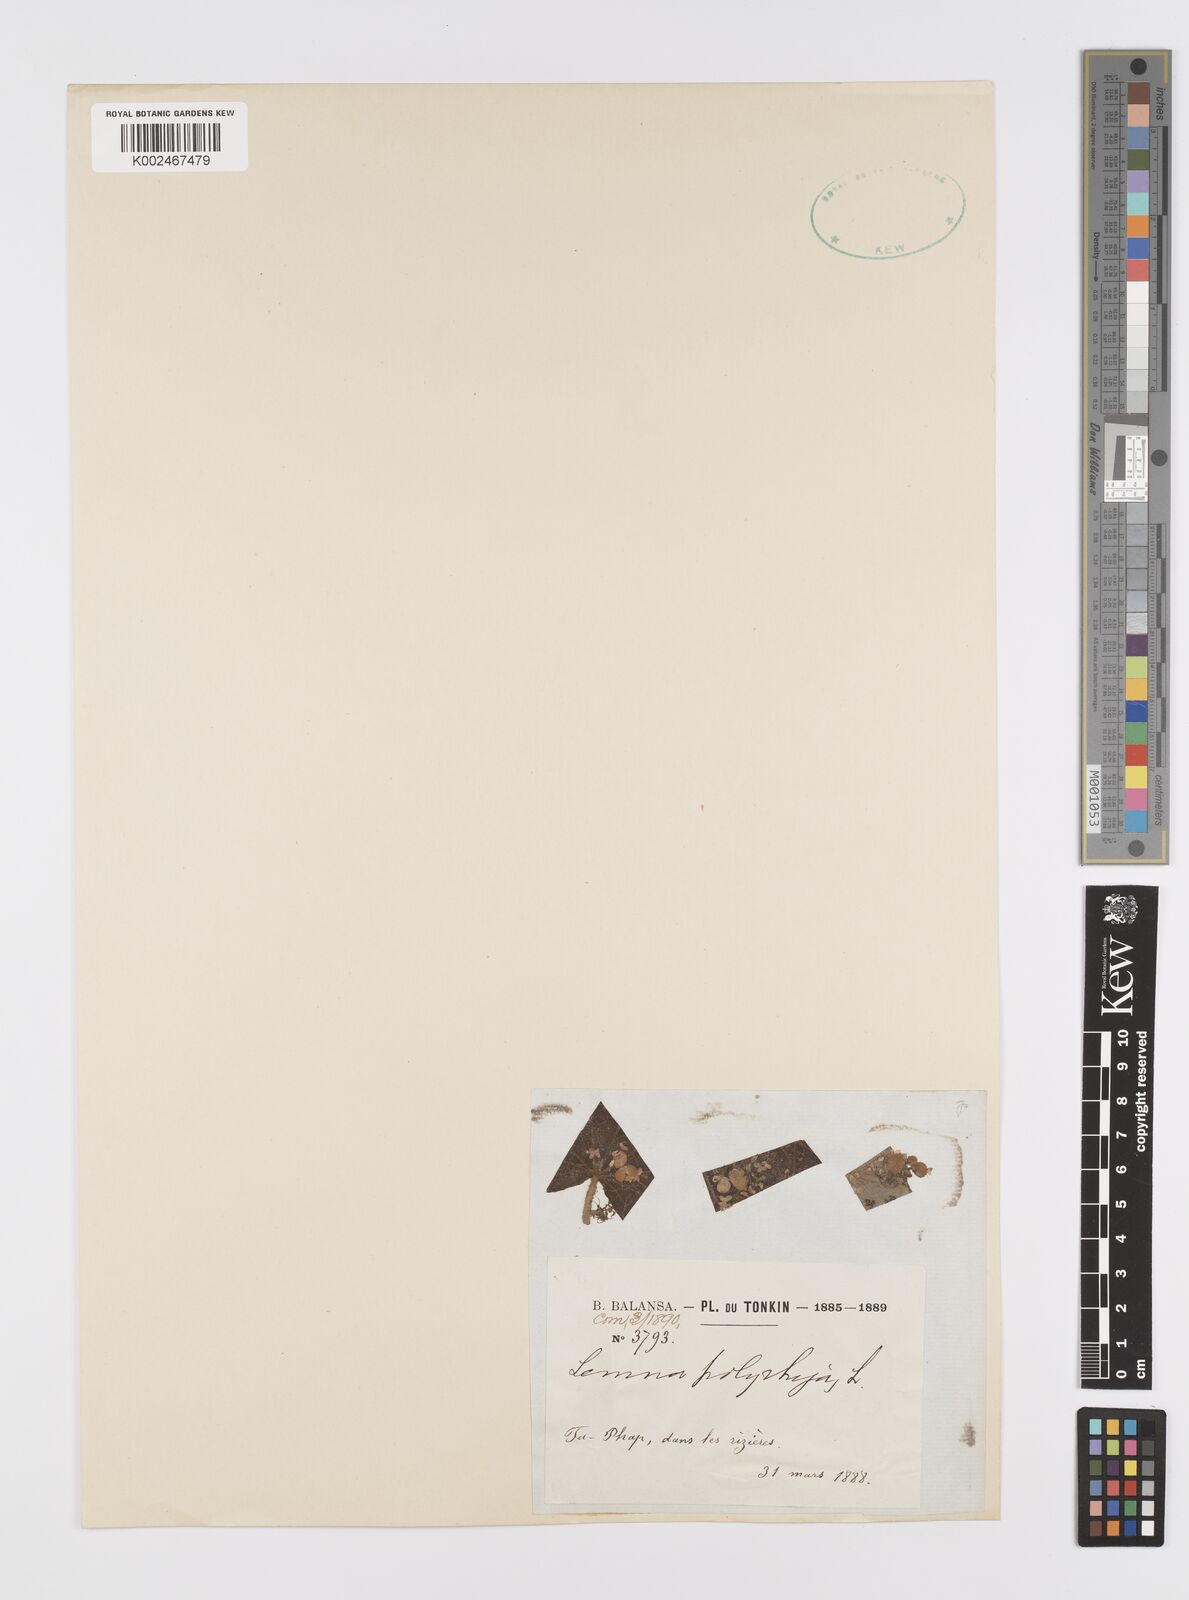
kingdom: Plantae
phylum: Tracheophyta
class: Liliopsida
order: Alismatales
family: Araceae
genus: Spirodela
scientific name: Spirodela polyrhiza
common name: Great duckweed
